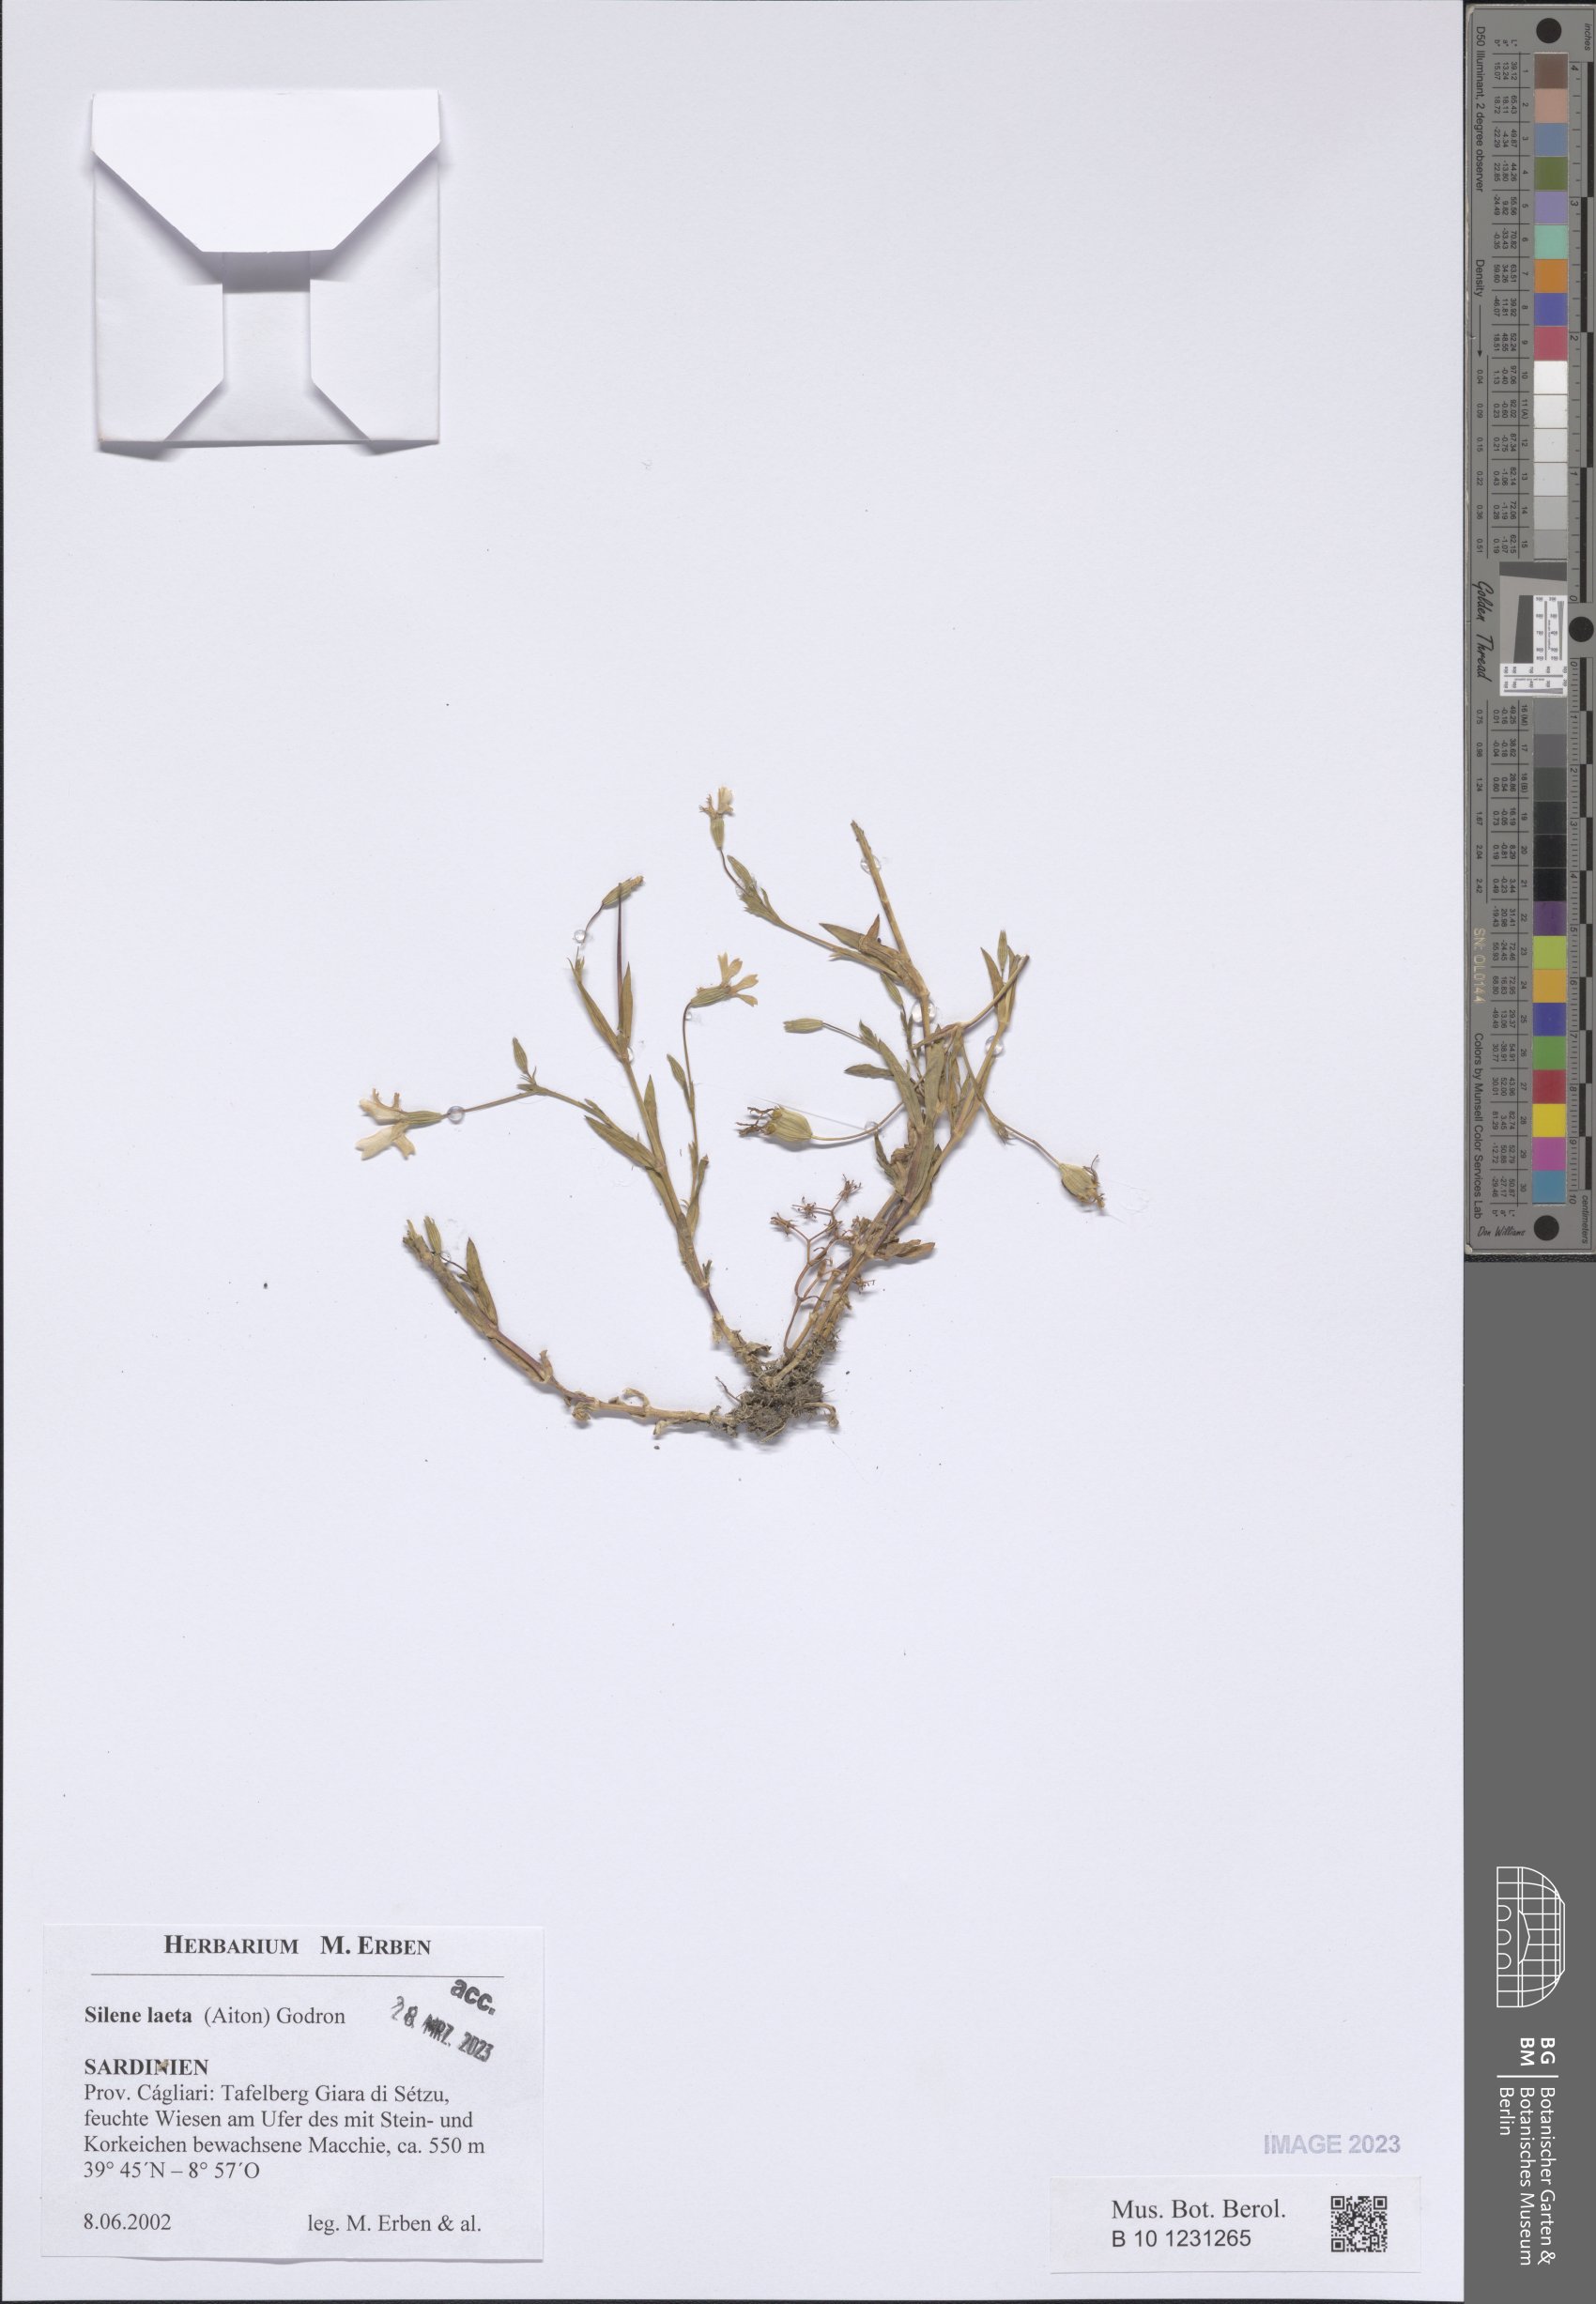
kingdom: Plantae
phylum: Tracheophyta
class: Magnoliopsida
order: Caryophyllales
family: Caryophyllaceae
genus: Eudianthe
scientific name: Eudianthe laeta
